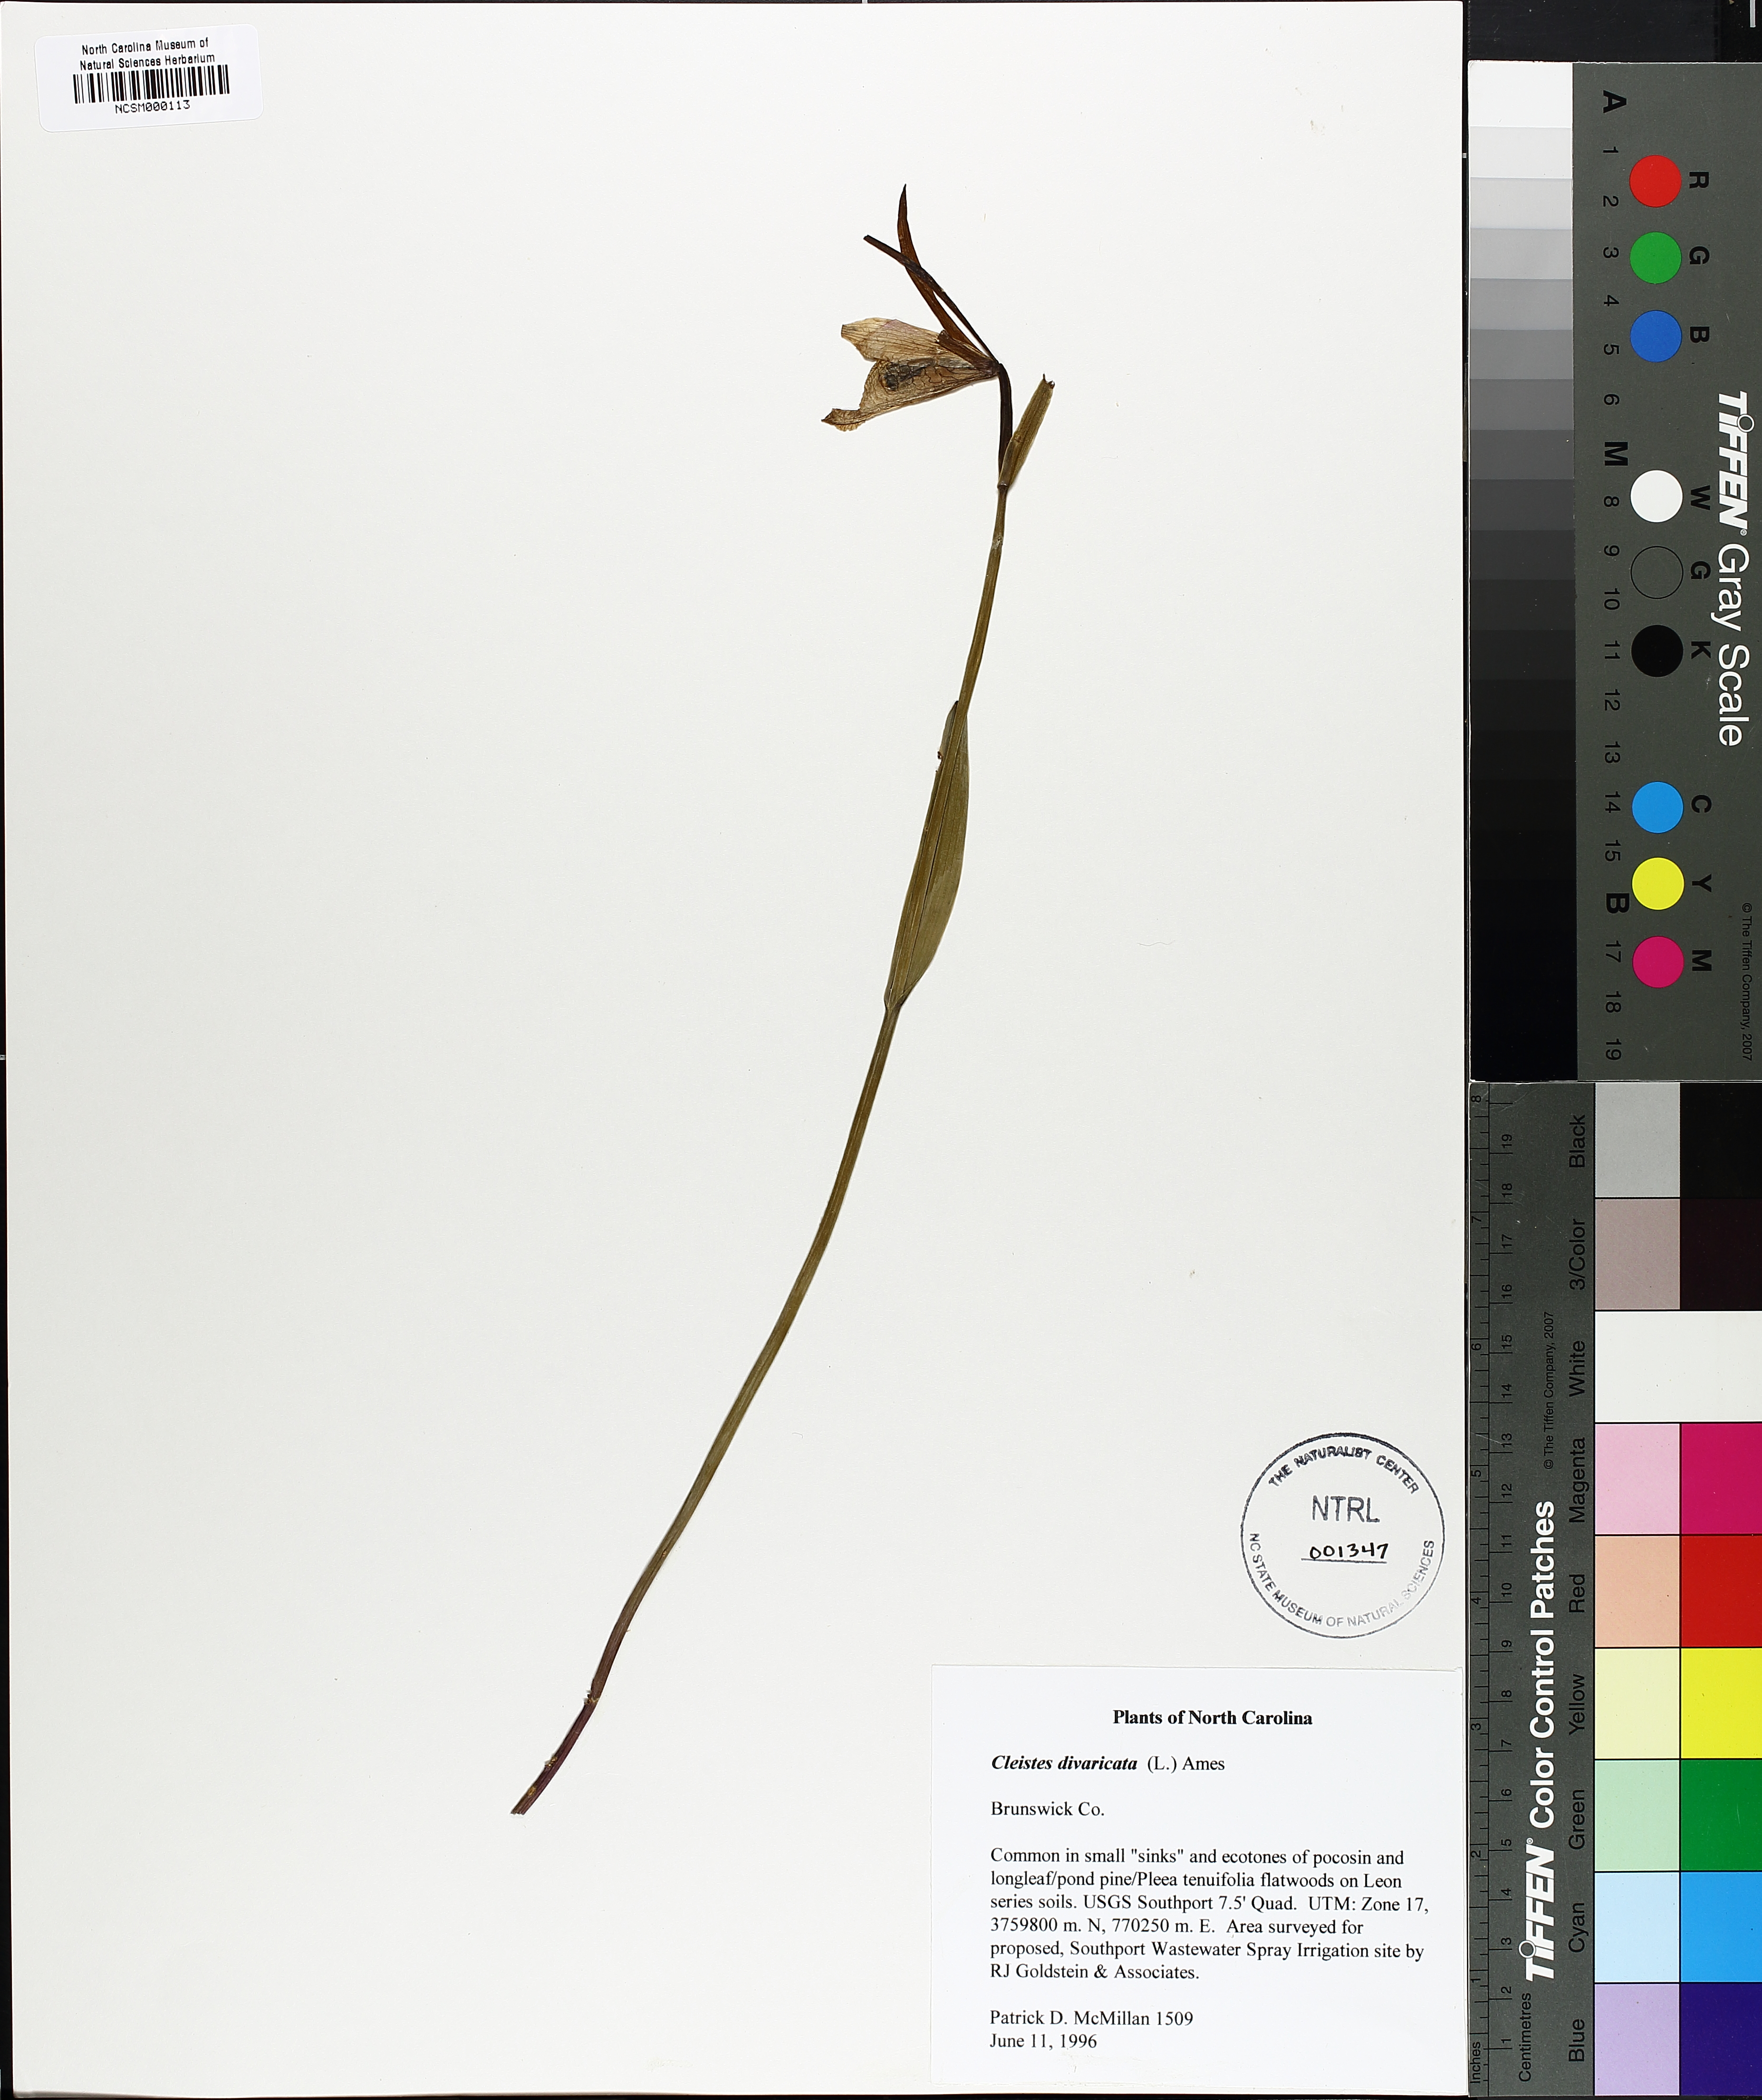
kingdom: Plantae
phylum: Tracheophyta
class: Liliopsida
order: Asparagales
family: Orchidaceae
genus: Cleistesiopsis
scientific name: Cleistesiopsis divaricata
